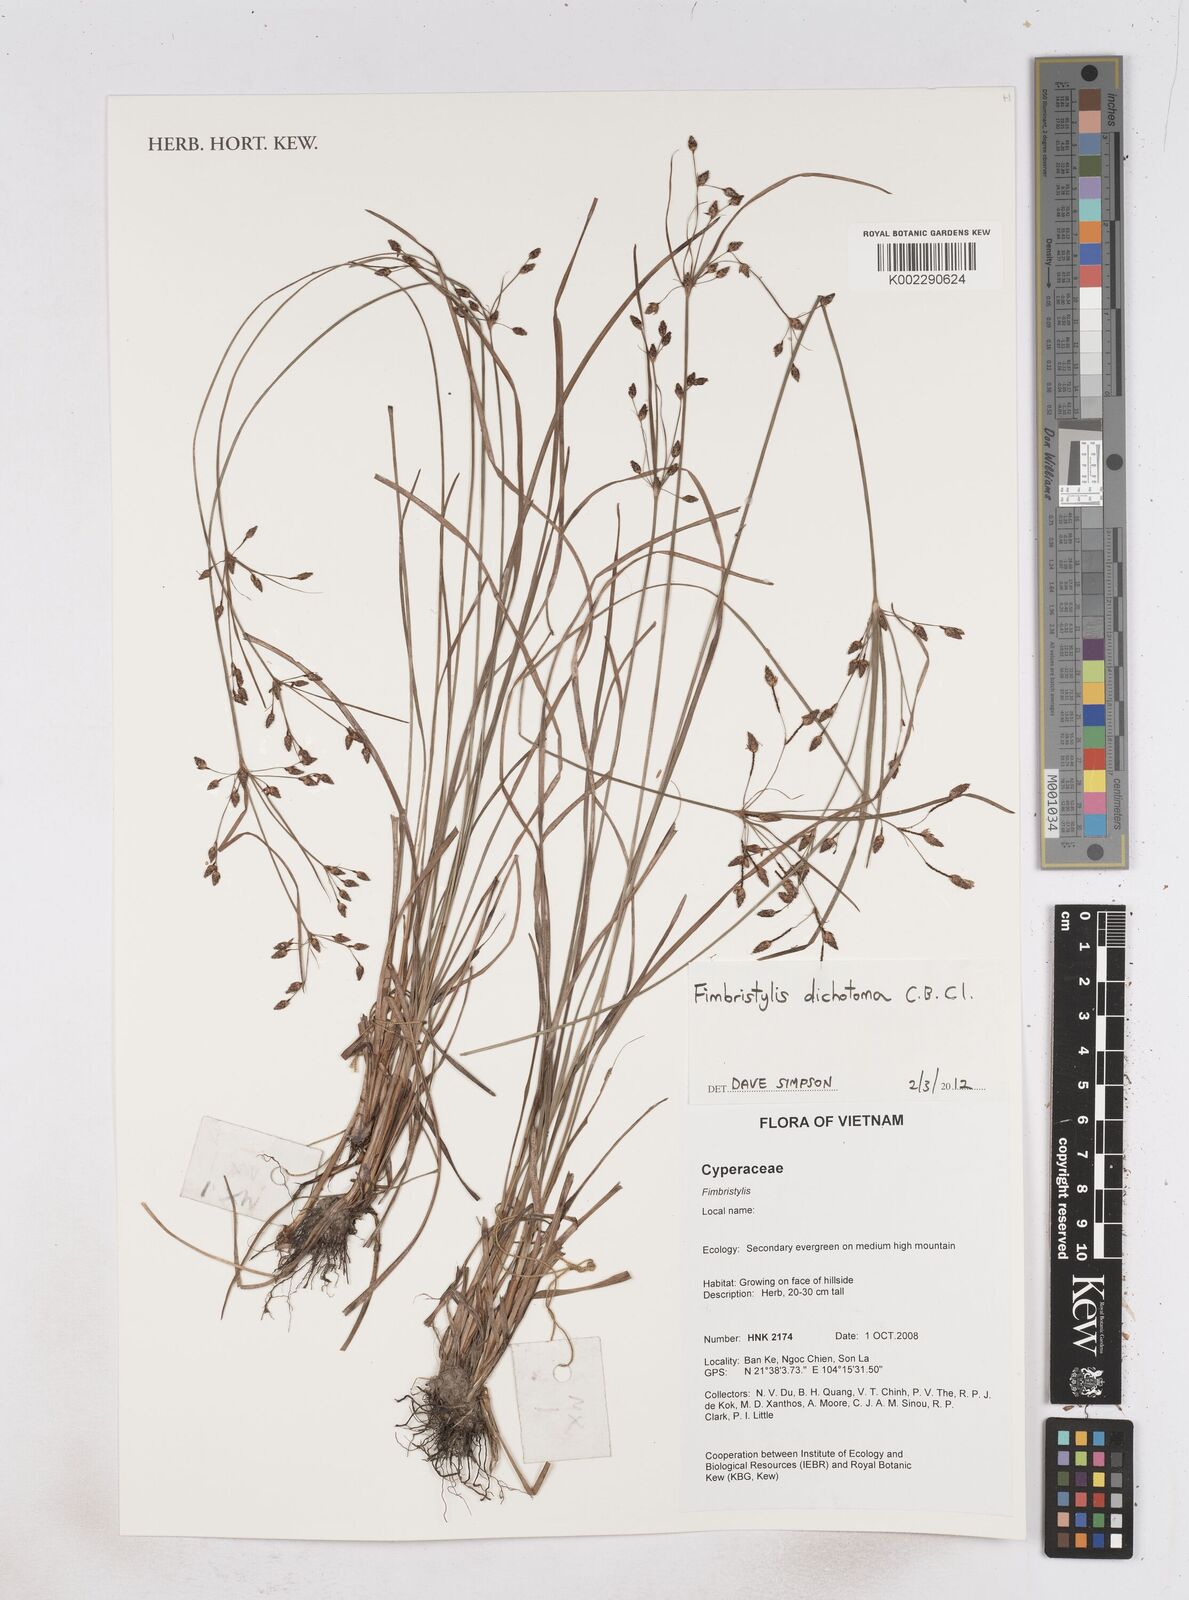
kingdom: Plantae
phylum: Tracheophyta
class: Liliopsida
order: Poales
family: Cyperaceae
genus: Fimbristylis
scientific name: Fimbristylis dichotoma
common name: Forked fimbry
